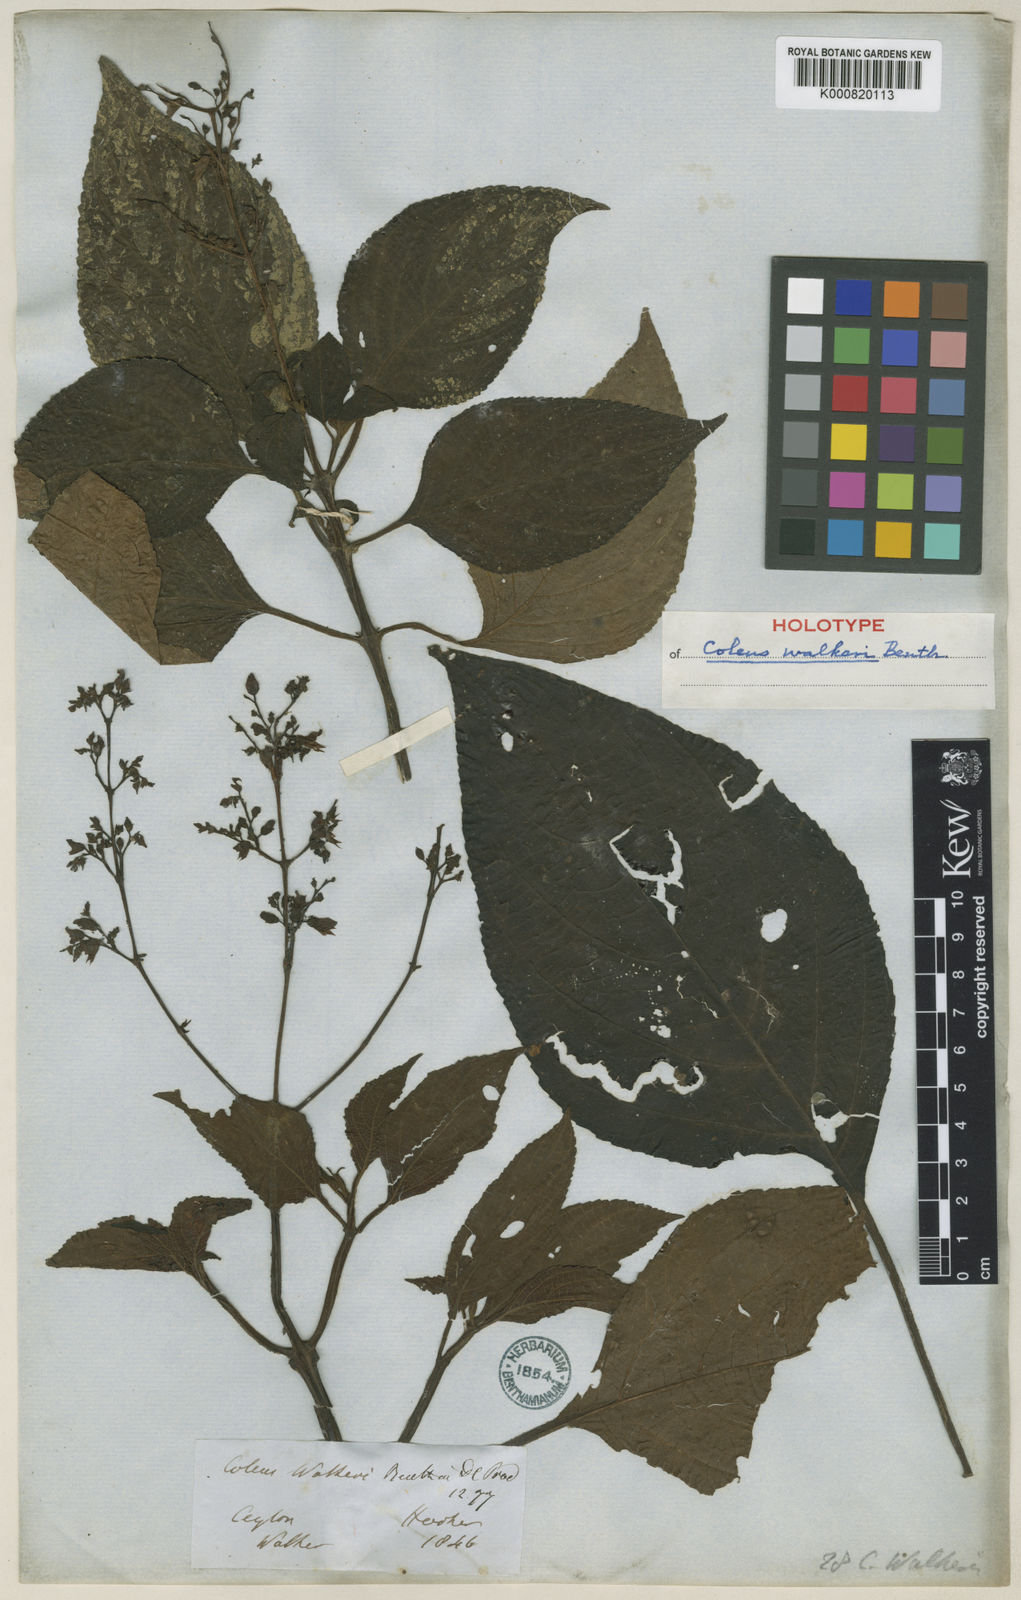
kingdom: Plantae
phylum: Tracheophyta
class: Magnoliopsida
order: Lamiales
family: Lamiaceae
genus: Coleus
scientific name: Coleus malabaricus
